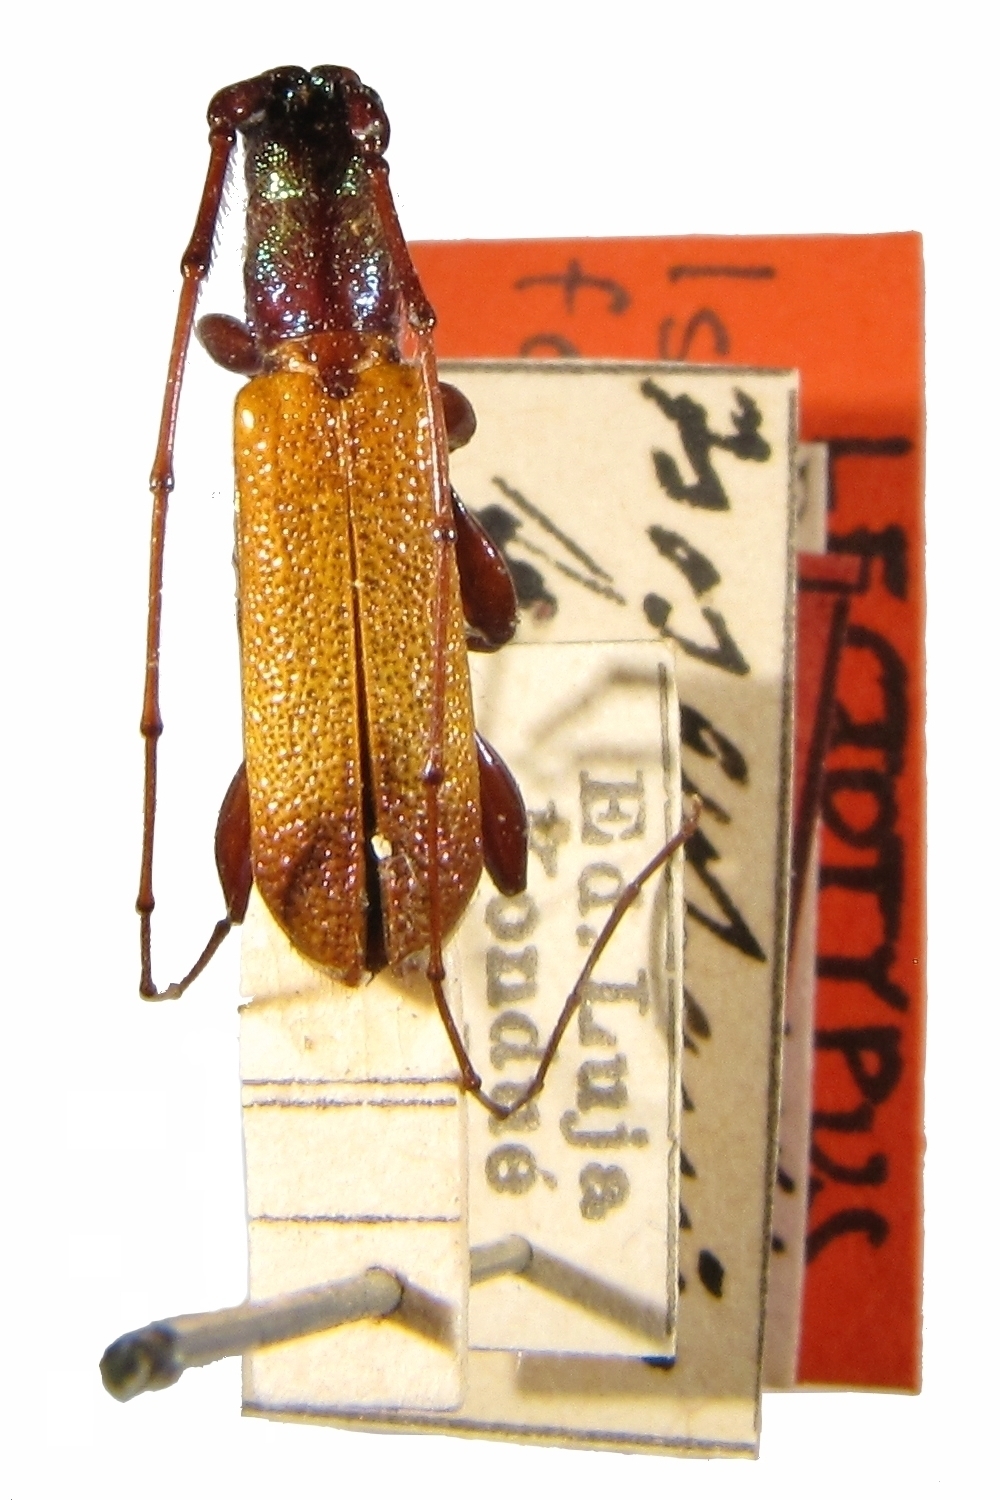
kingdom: Animalia
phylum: Arthropoda
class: Insecta
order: Coleoptera
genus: Isosaphanus
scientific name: Isosaphanus
